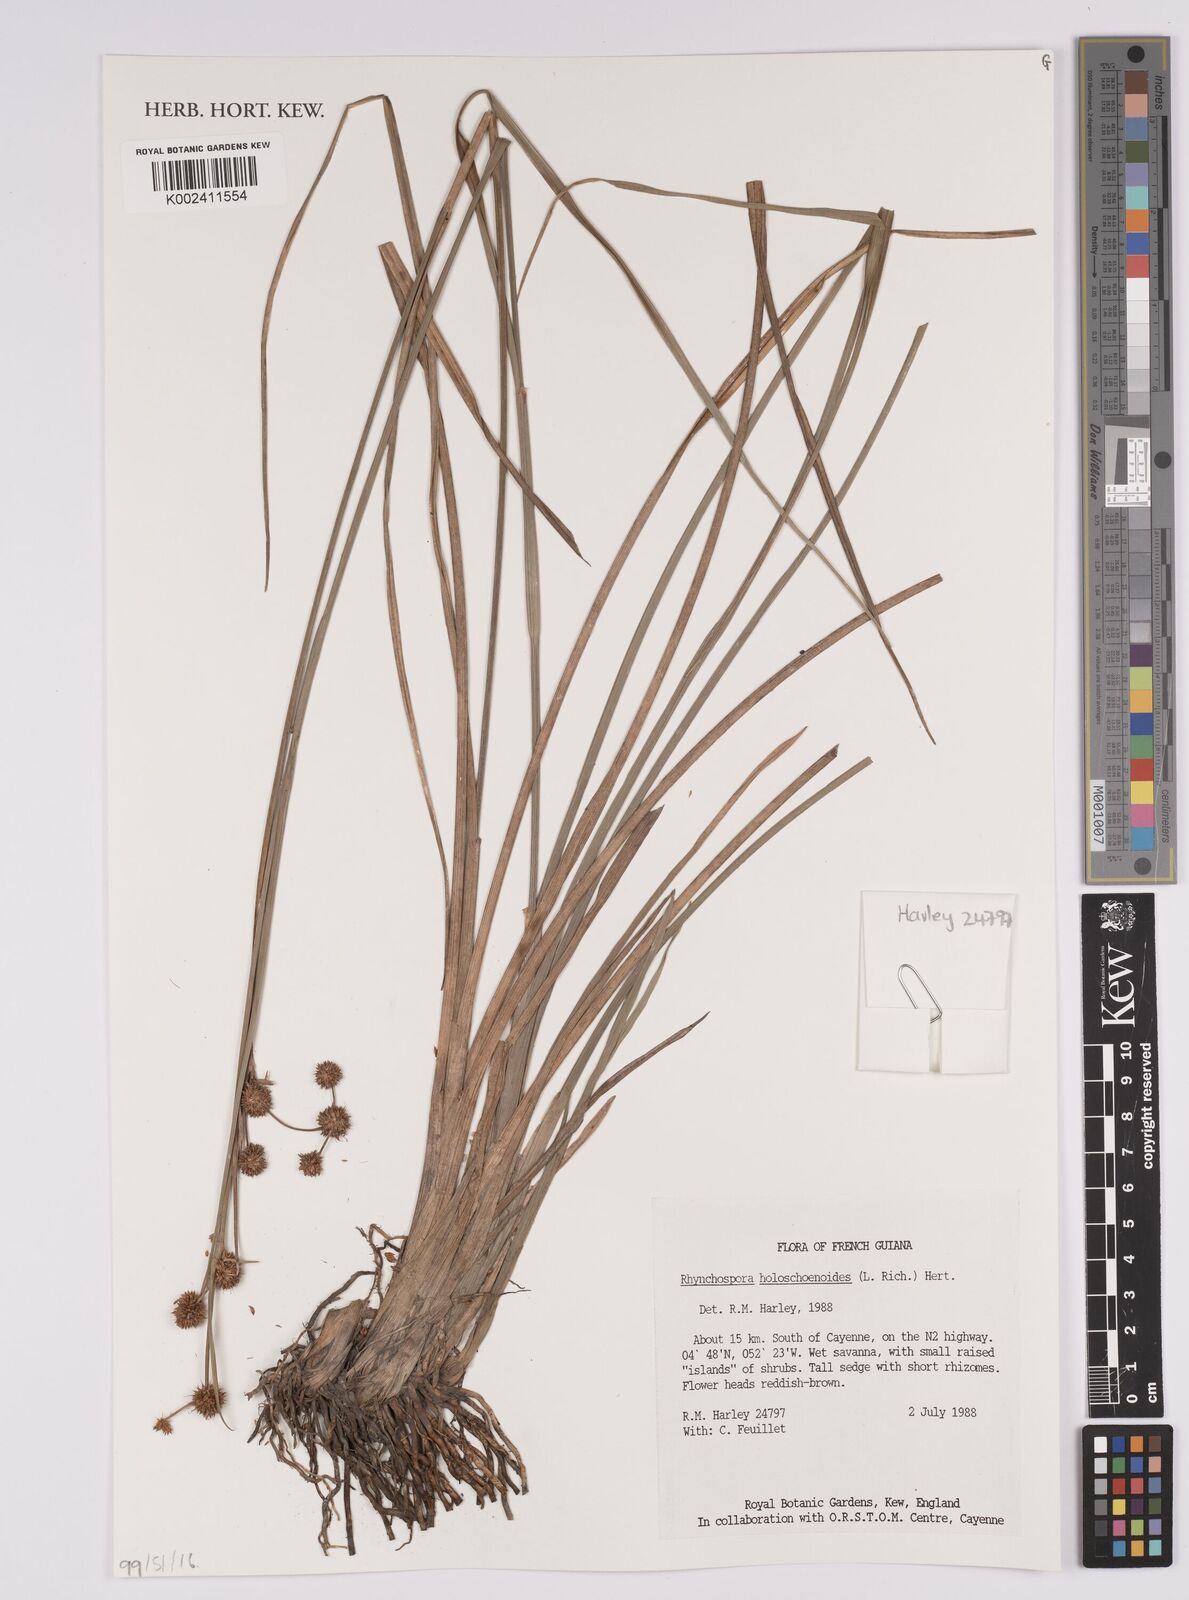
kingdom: Plantae
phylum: Tracheophyta
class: Liliopsida
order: Poales
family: Cyperaceae
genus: Rhynchospora
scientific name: Rhynchospora holoschoenoides
